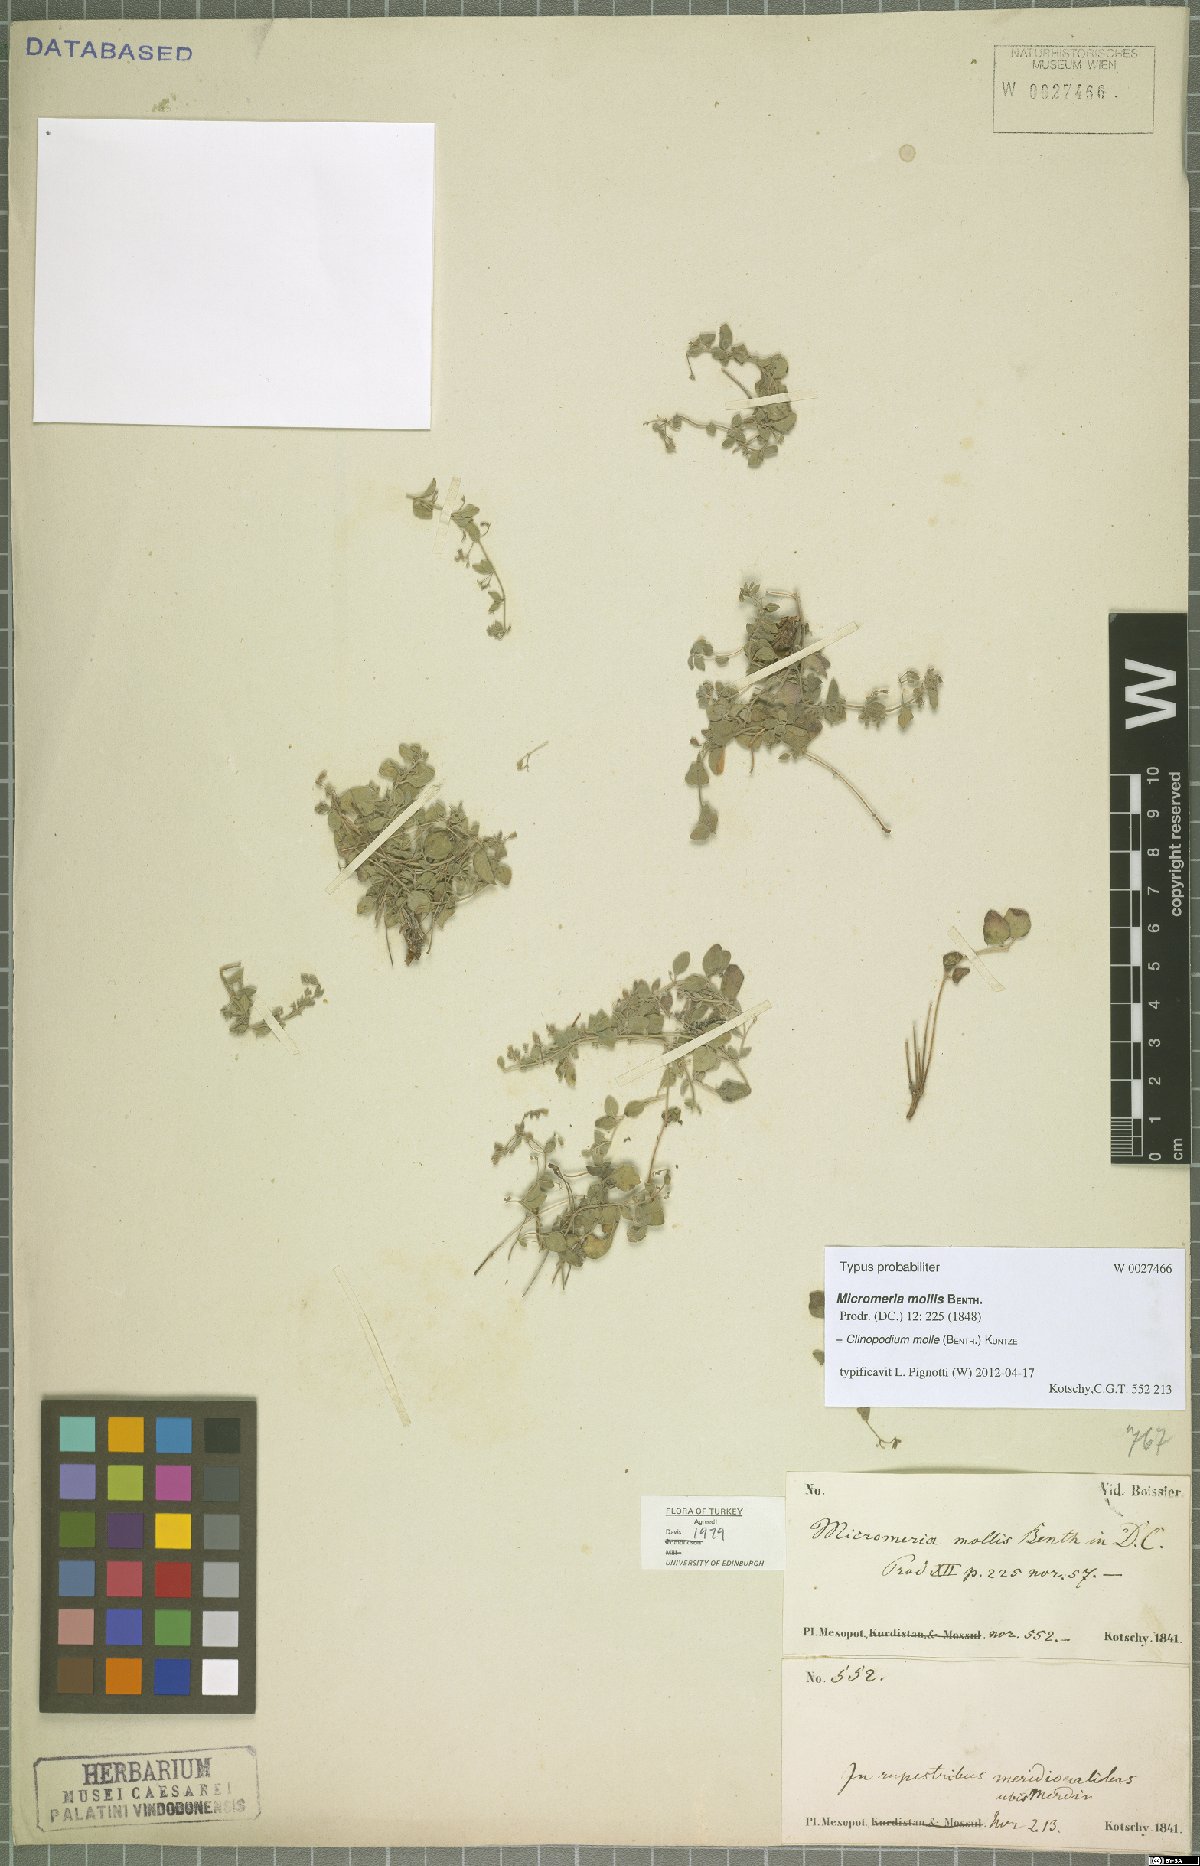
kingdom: Plantae
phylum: Tracheophyta
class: Magnoliopsida
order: Lamiales
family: Lamiaceae
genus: Clinopodium
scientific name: Clinopodium molle
